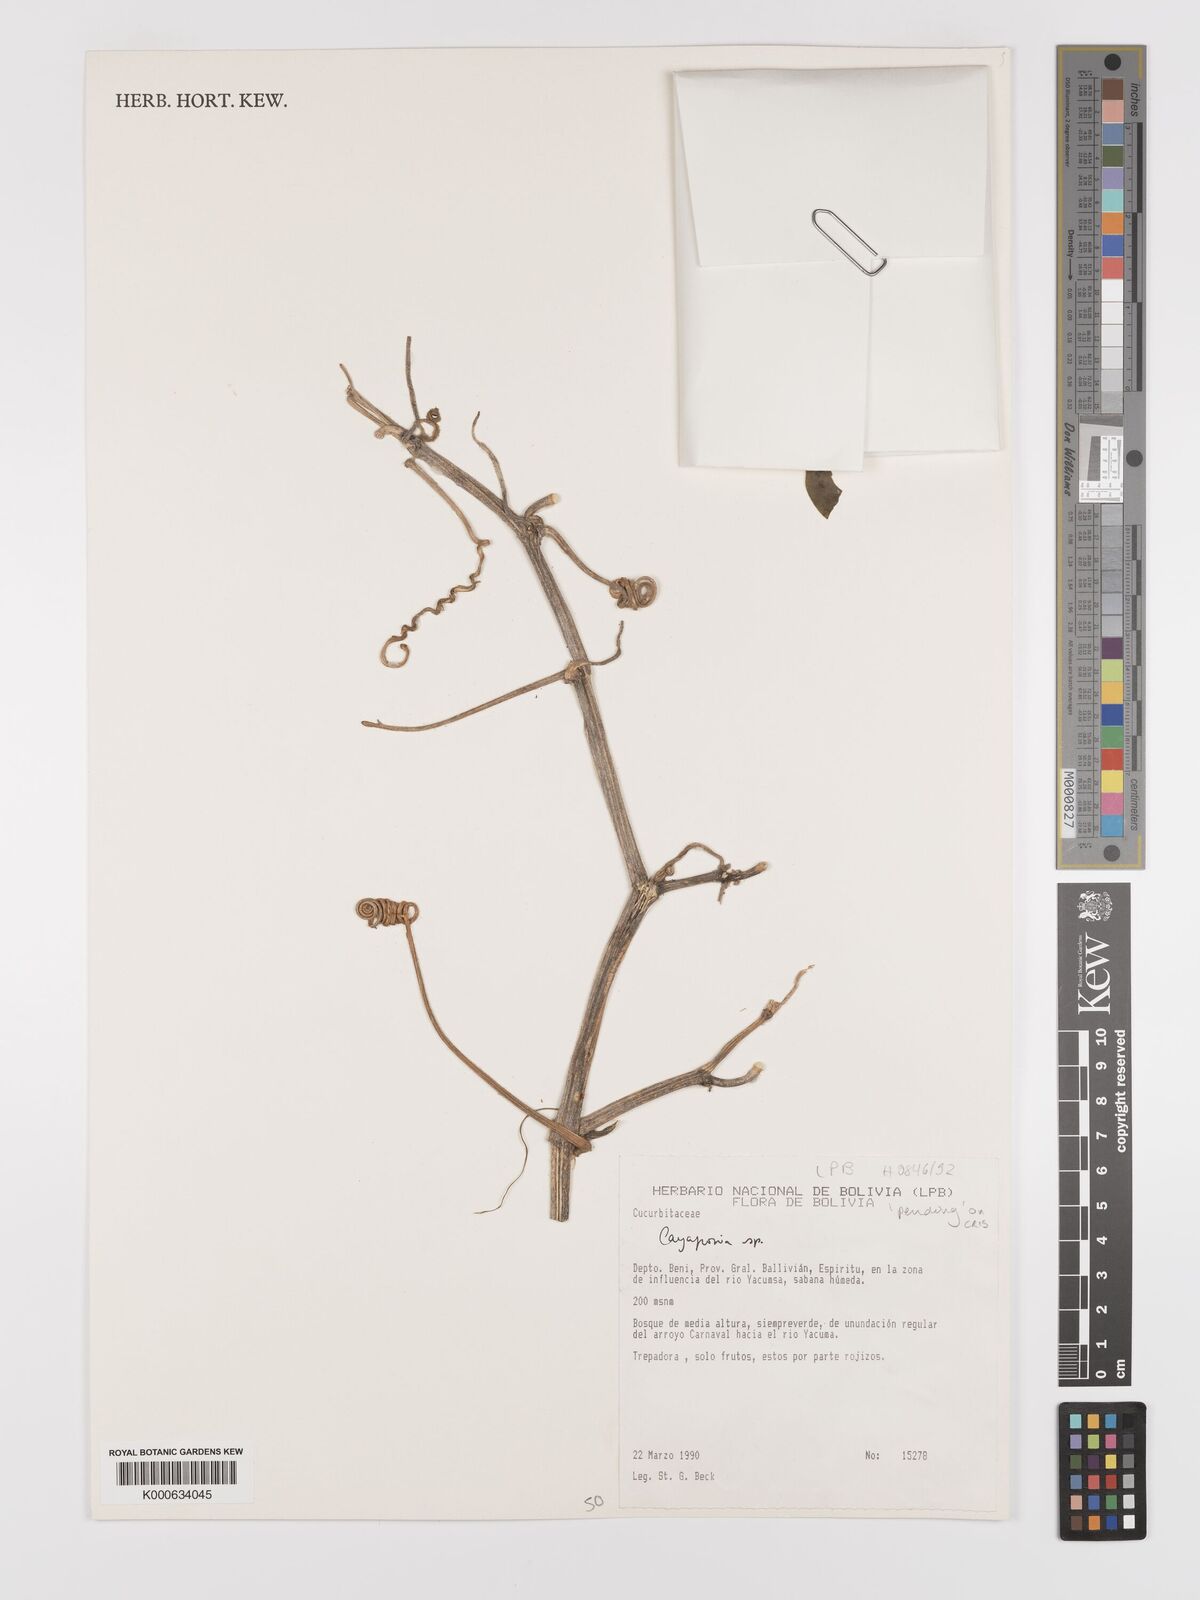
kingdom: Plantae
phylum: Tracheophyta
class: Magnoliopsida
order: Cucurbitales
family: Cucurbitaceae
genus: Cayaponia
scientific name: Cayaponia
